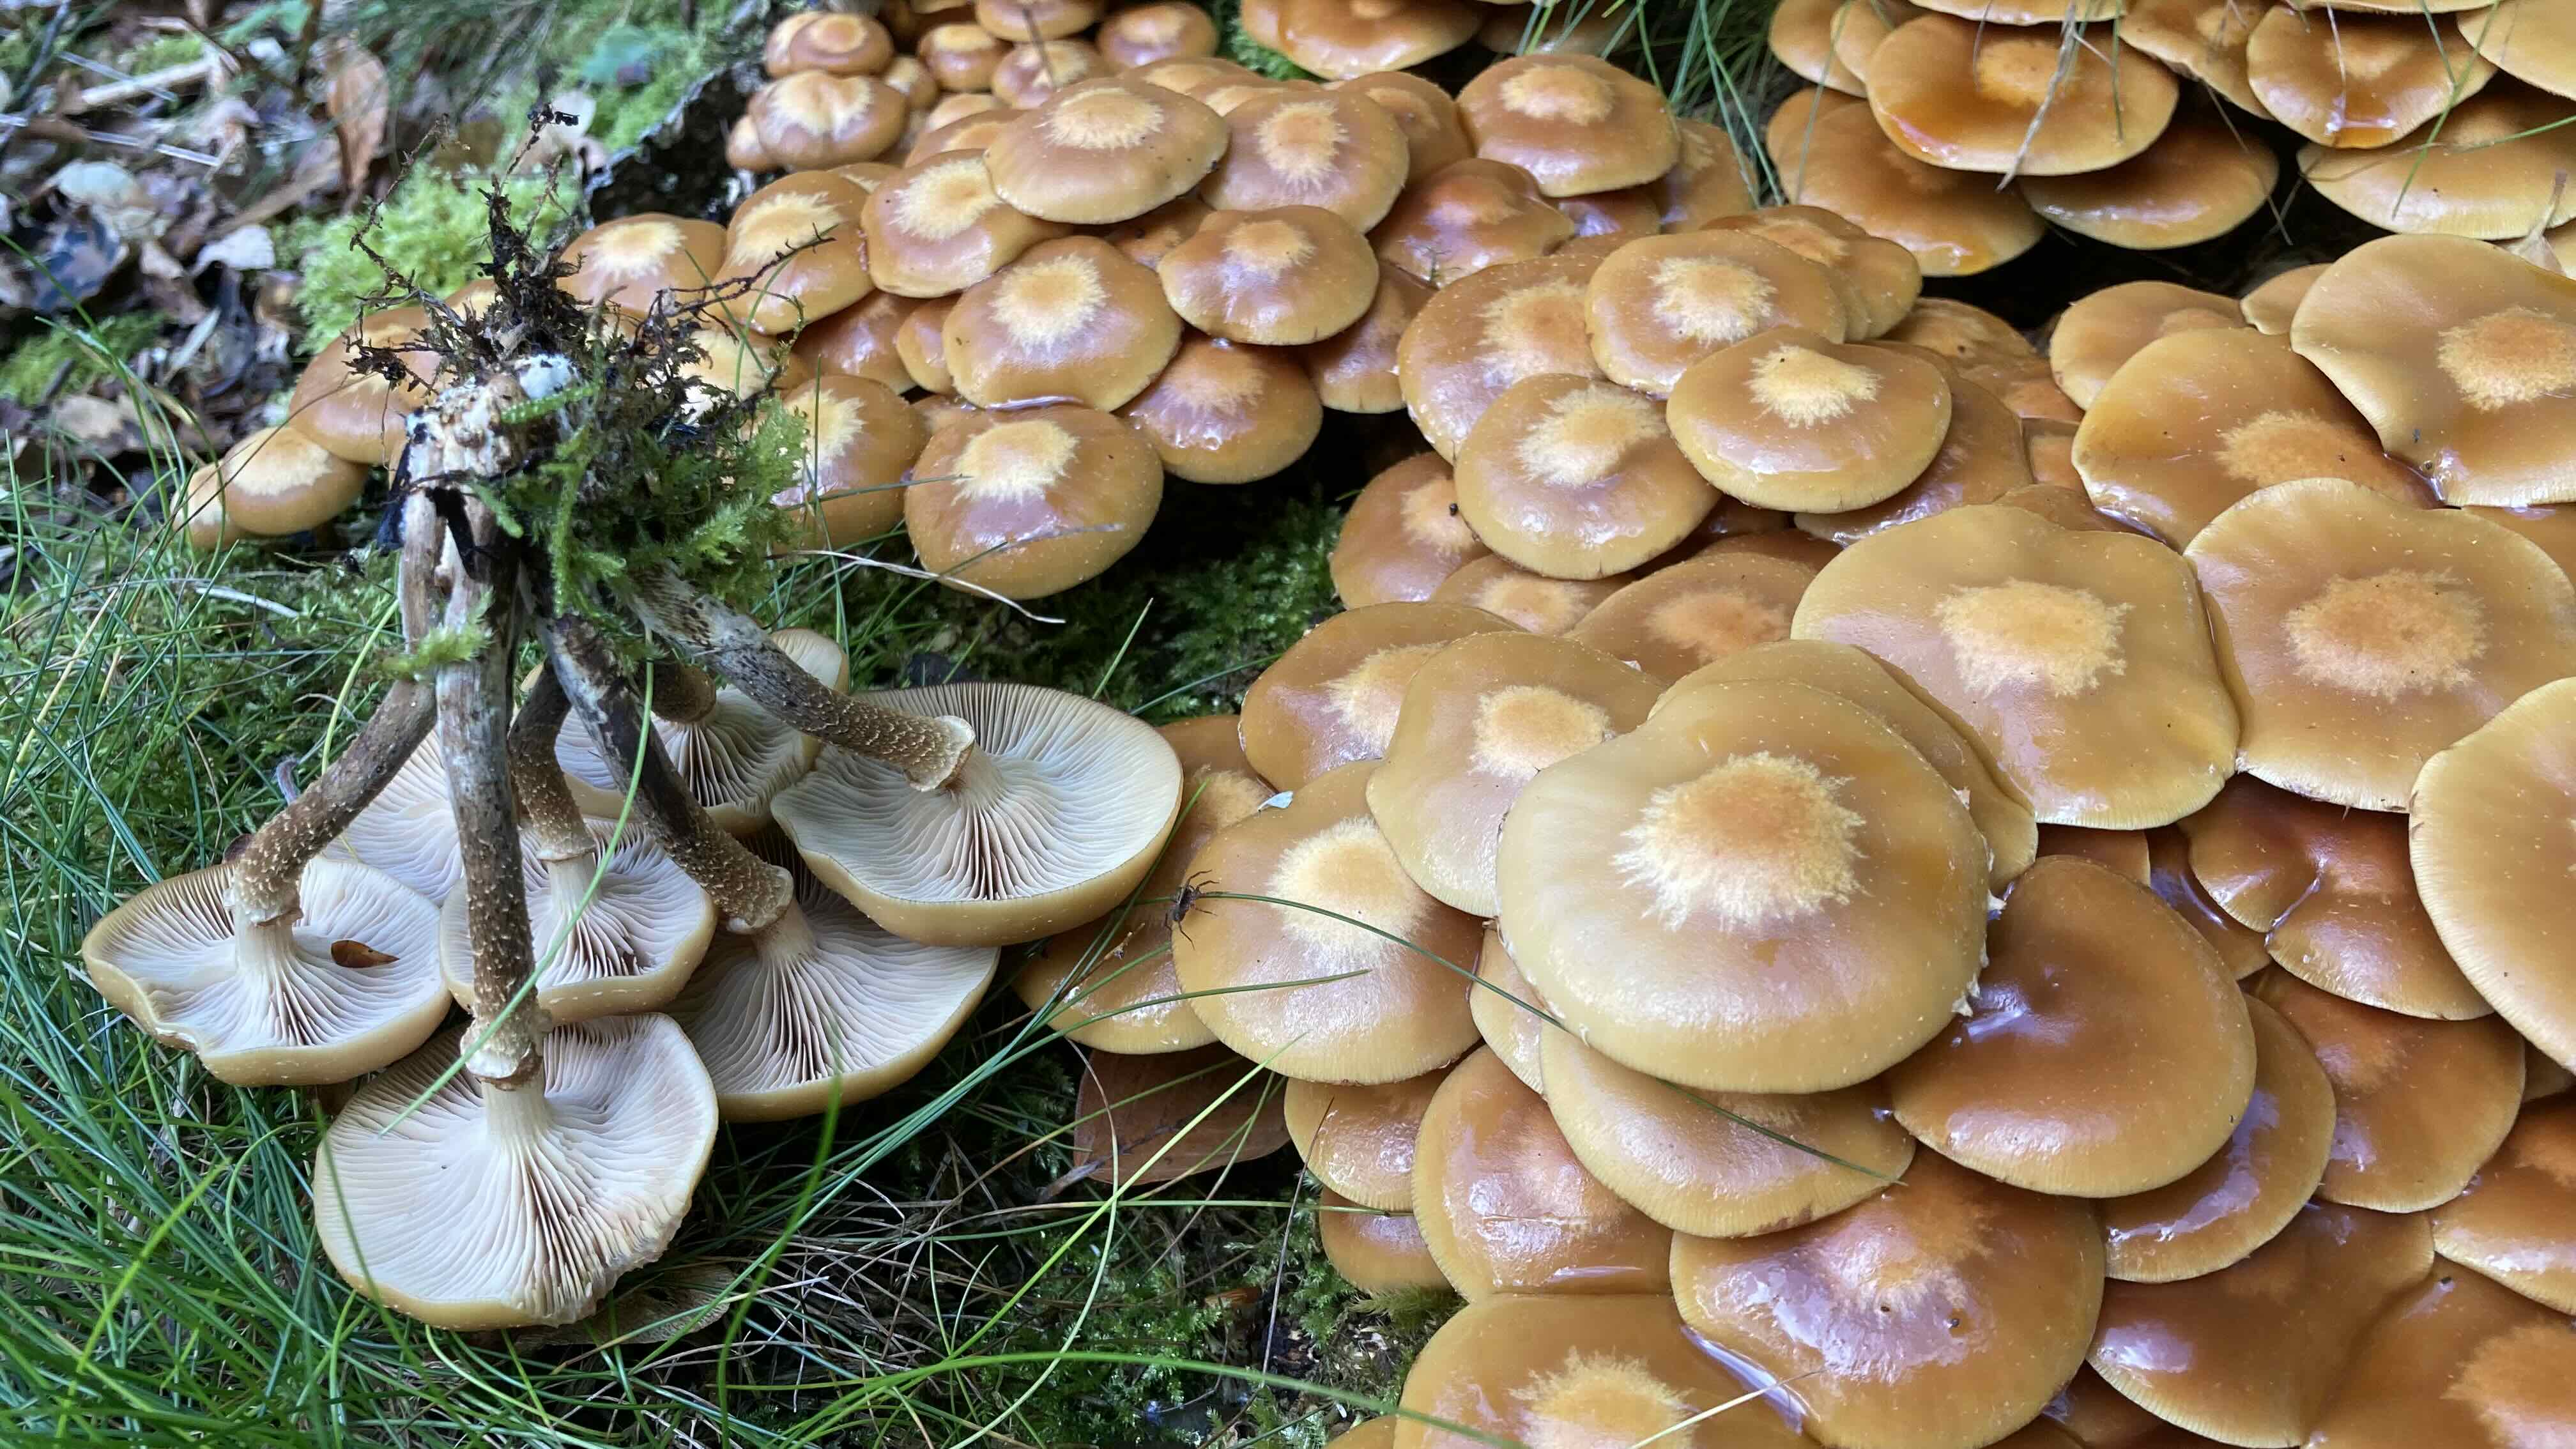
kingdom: Fungi
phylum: Basidiomycota
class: Agaricomycetes
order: Agaricales
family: Strophariaceae
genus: Kuehneromyces
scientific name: Kuehneromyces mutabilis
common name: foranderlig skælhat
